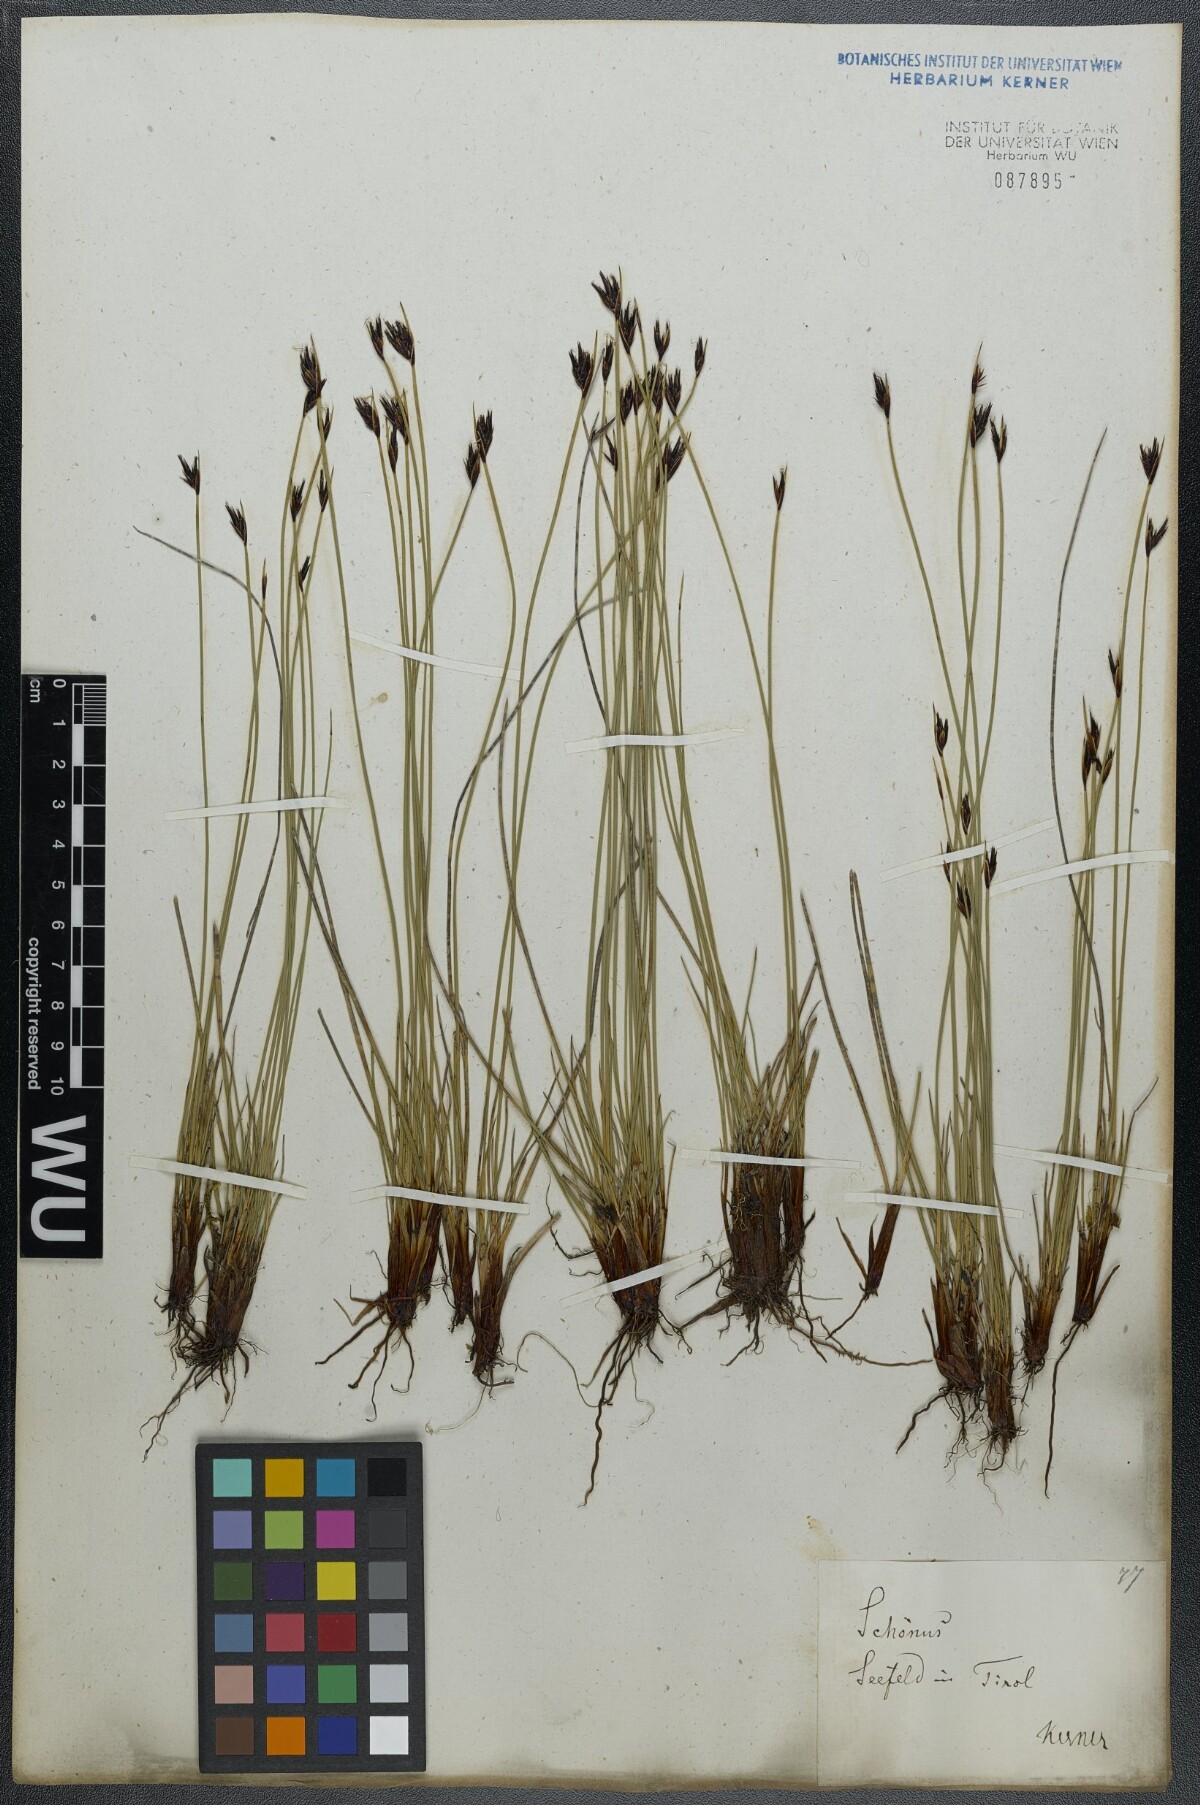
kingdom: Plantae
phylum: Tracheophyta
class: Liliopsida
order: Poales
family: Cyperaceae
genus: Schoenus
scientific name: Schoenus ferrugineus
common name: Brown bog-rush
